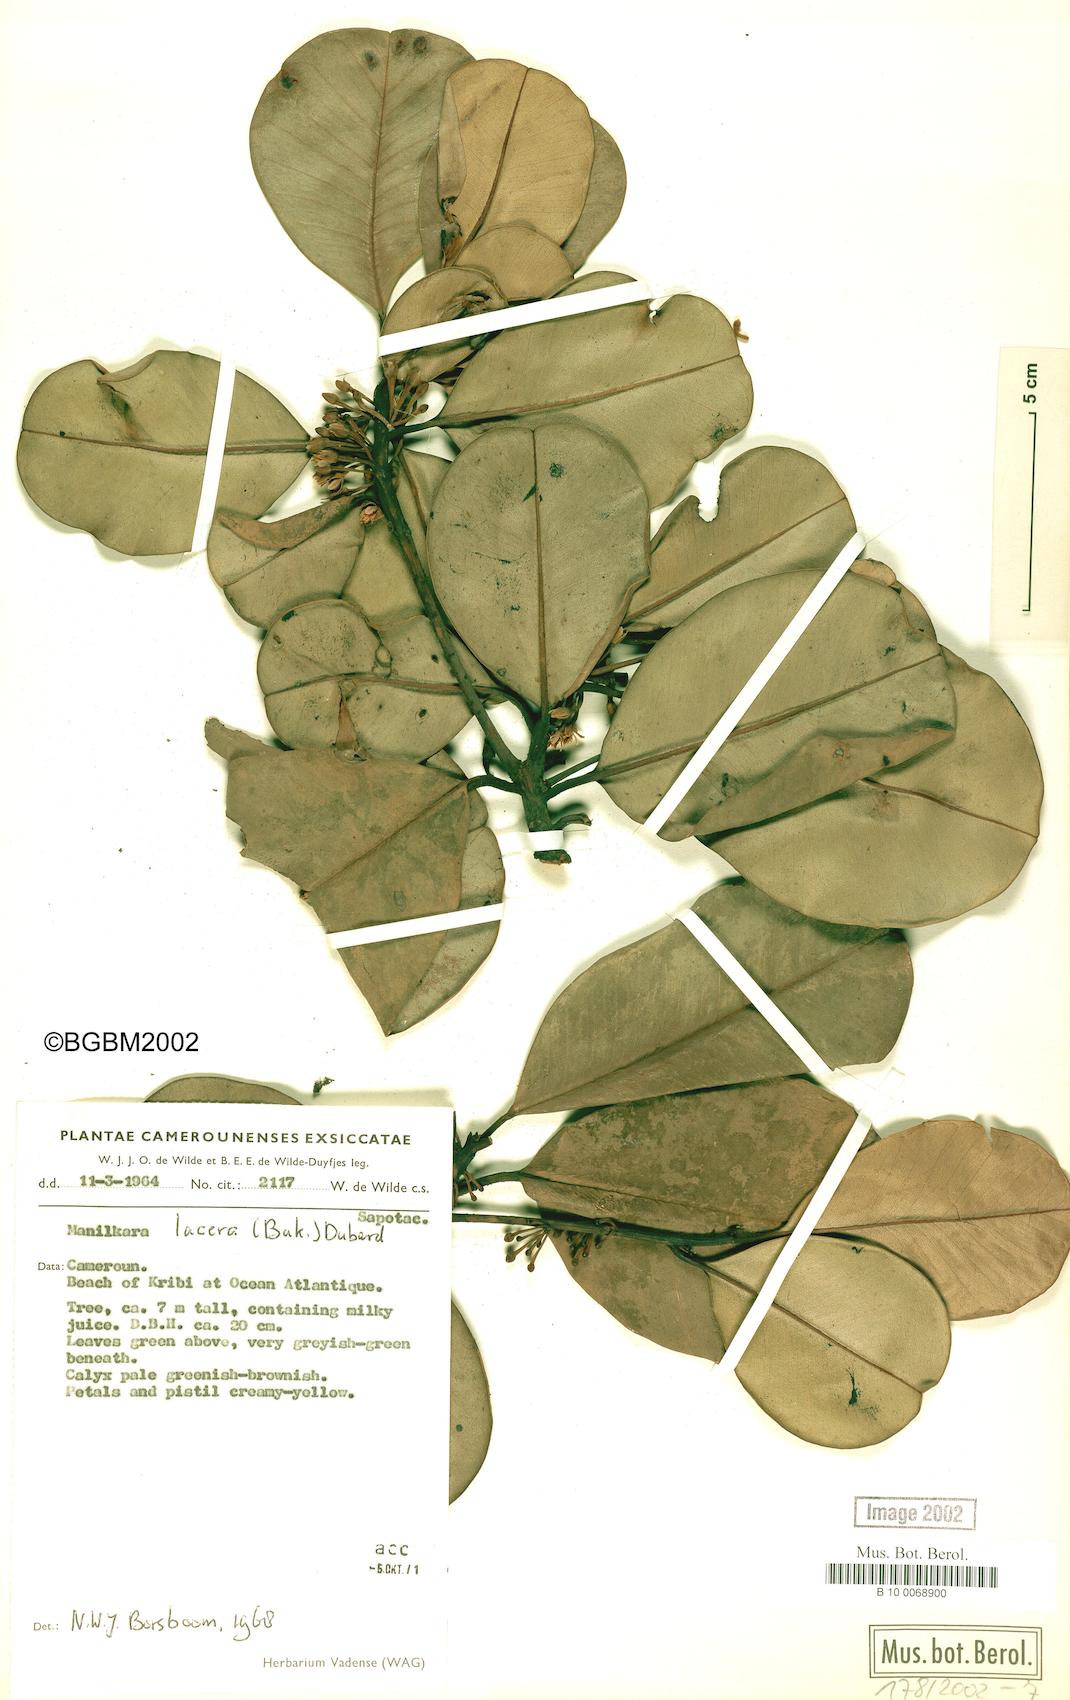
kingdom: Plantae
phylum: Tracheophyta
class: Magnoliopsida
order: Ericales
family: Sapotaceae
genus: Manilkara
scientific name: Manilkara obovata
